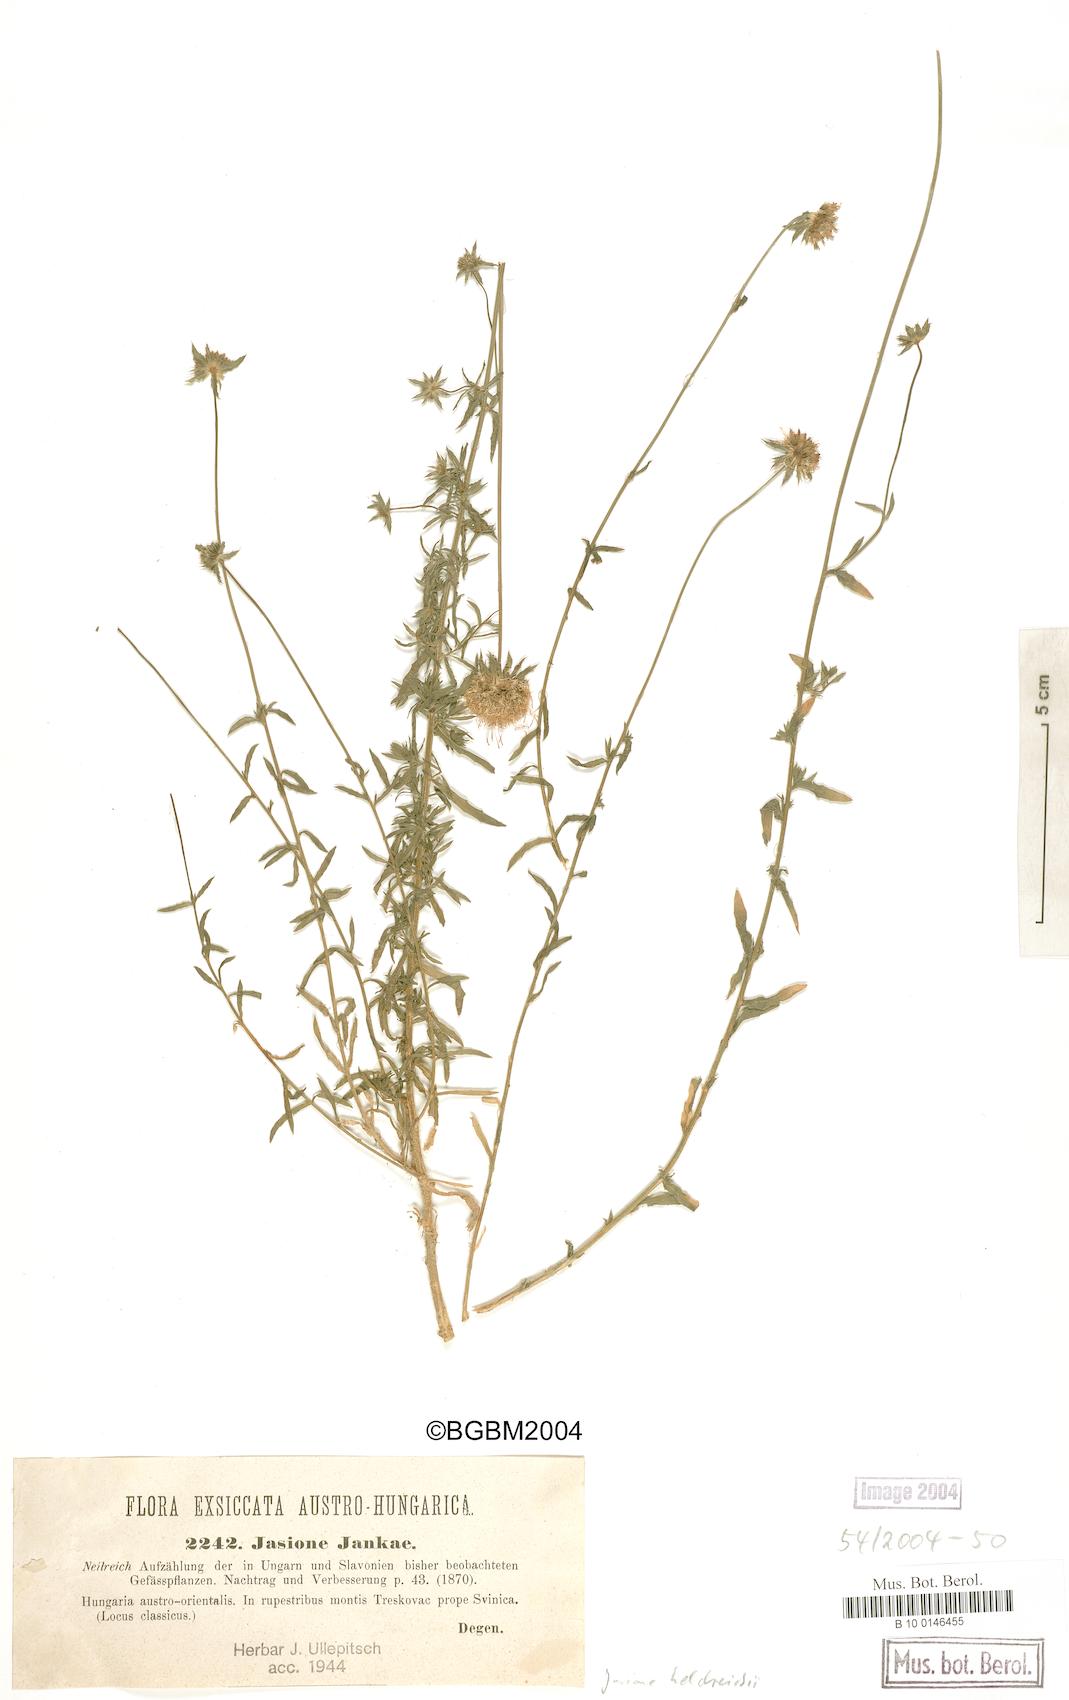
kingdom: Plantae
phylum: Tracheophyta
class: Magnoliopsida
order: Asterales
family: Campanulaceae
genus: Jasione
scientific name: Jasione heldreichii
